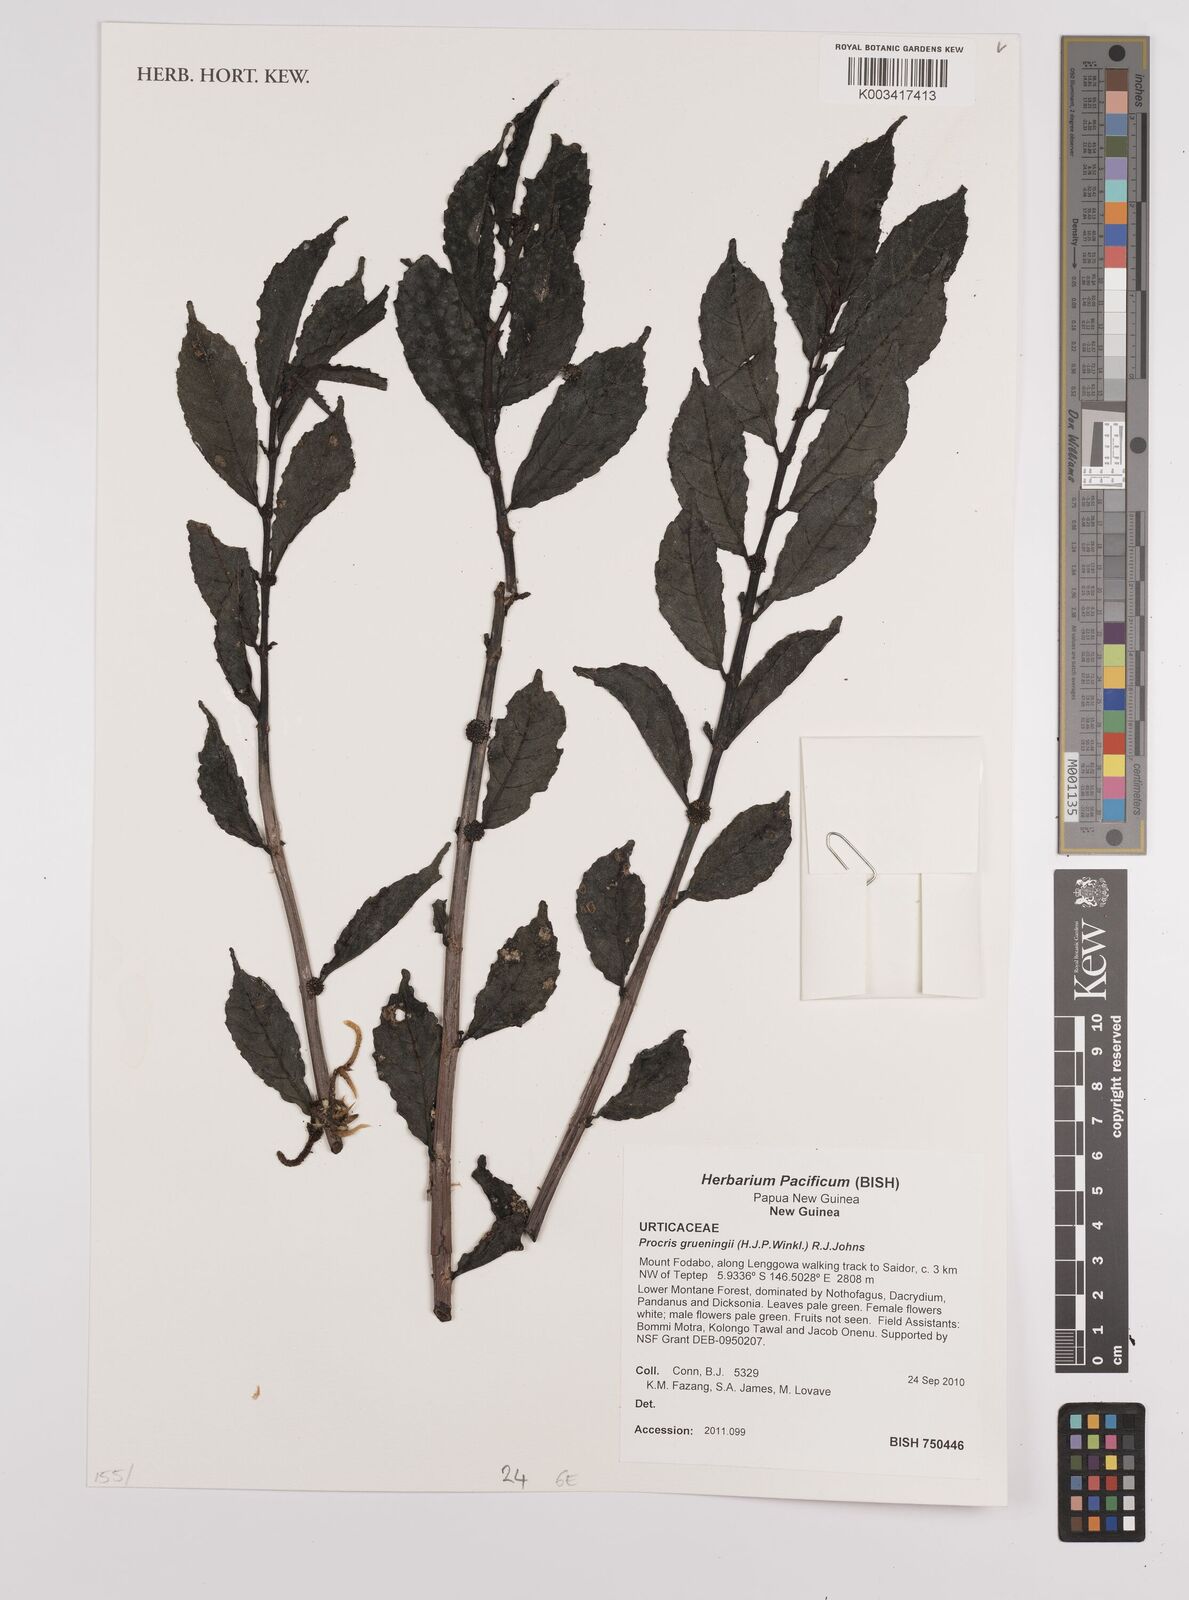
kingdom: Plantae
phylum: Tracheophyta
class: Magnoliopsida
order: Rosales
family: Urticaceae
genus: Procris
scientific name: Procris grueningii
